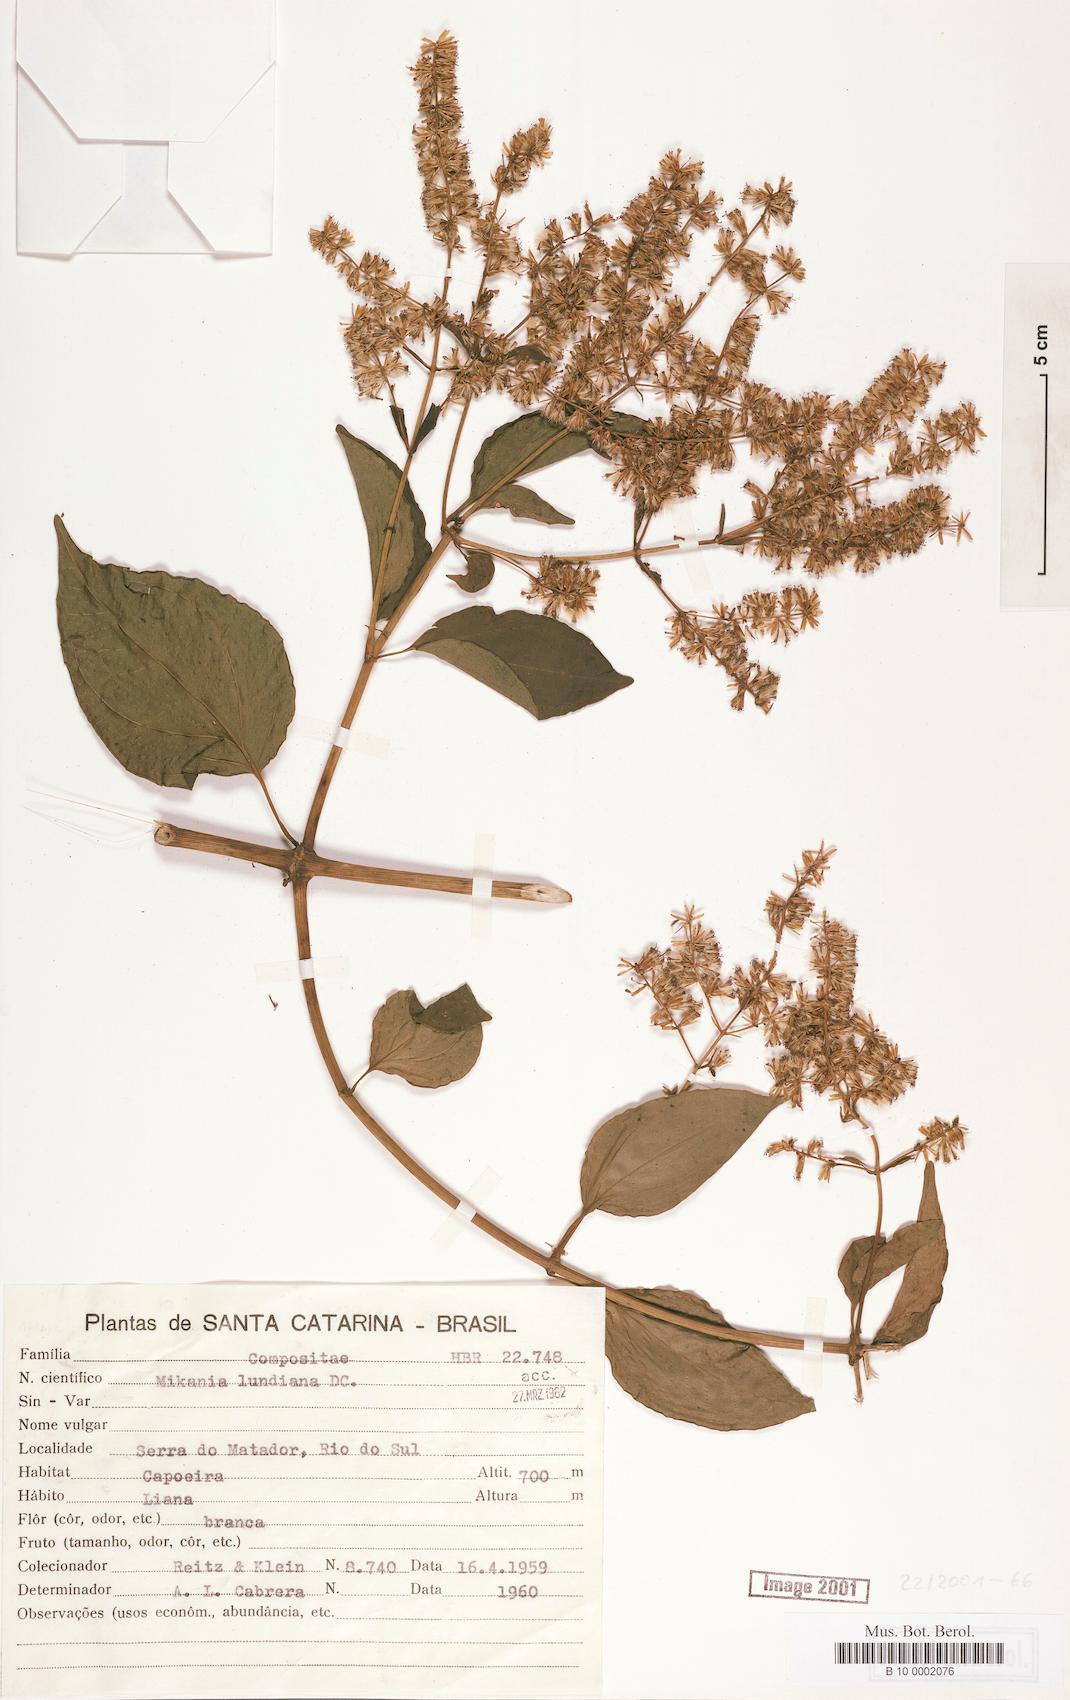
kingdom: Plantae
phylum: Tracheophyta
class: Magnoliopsida
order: Asterales
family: Asteraceae
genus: Mikania
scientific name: Mikania lundiana
